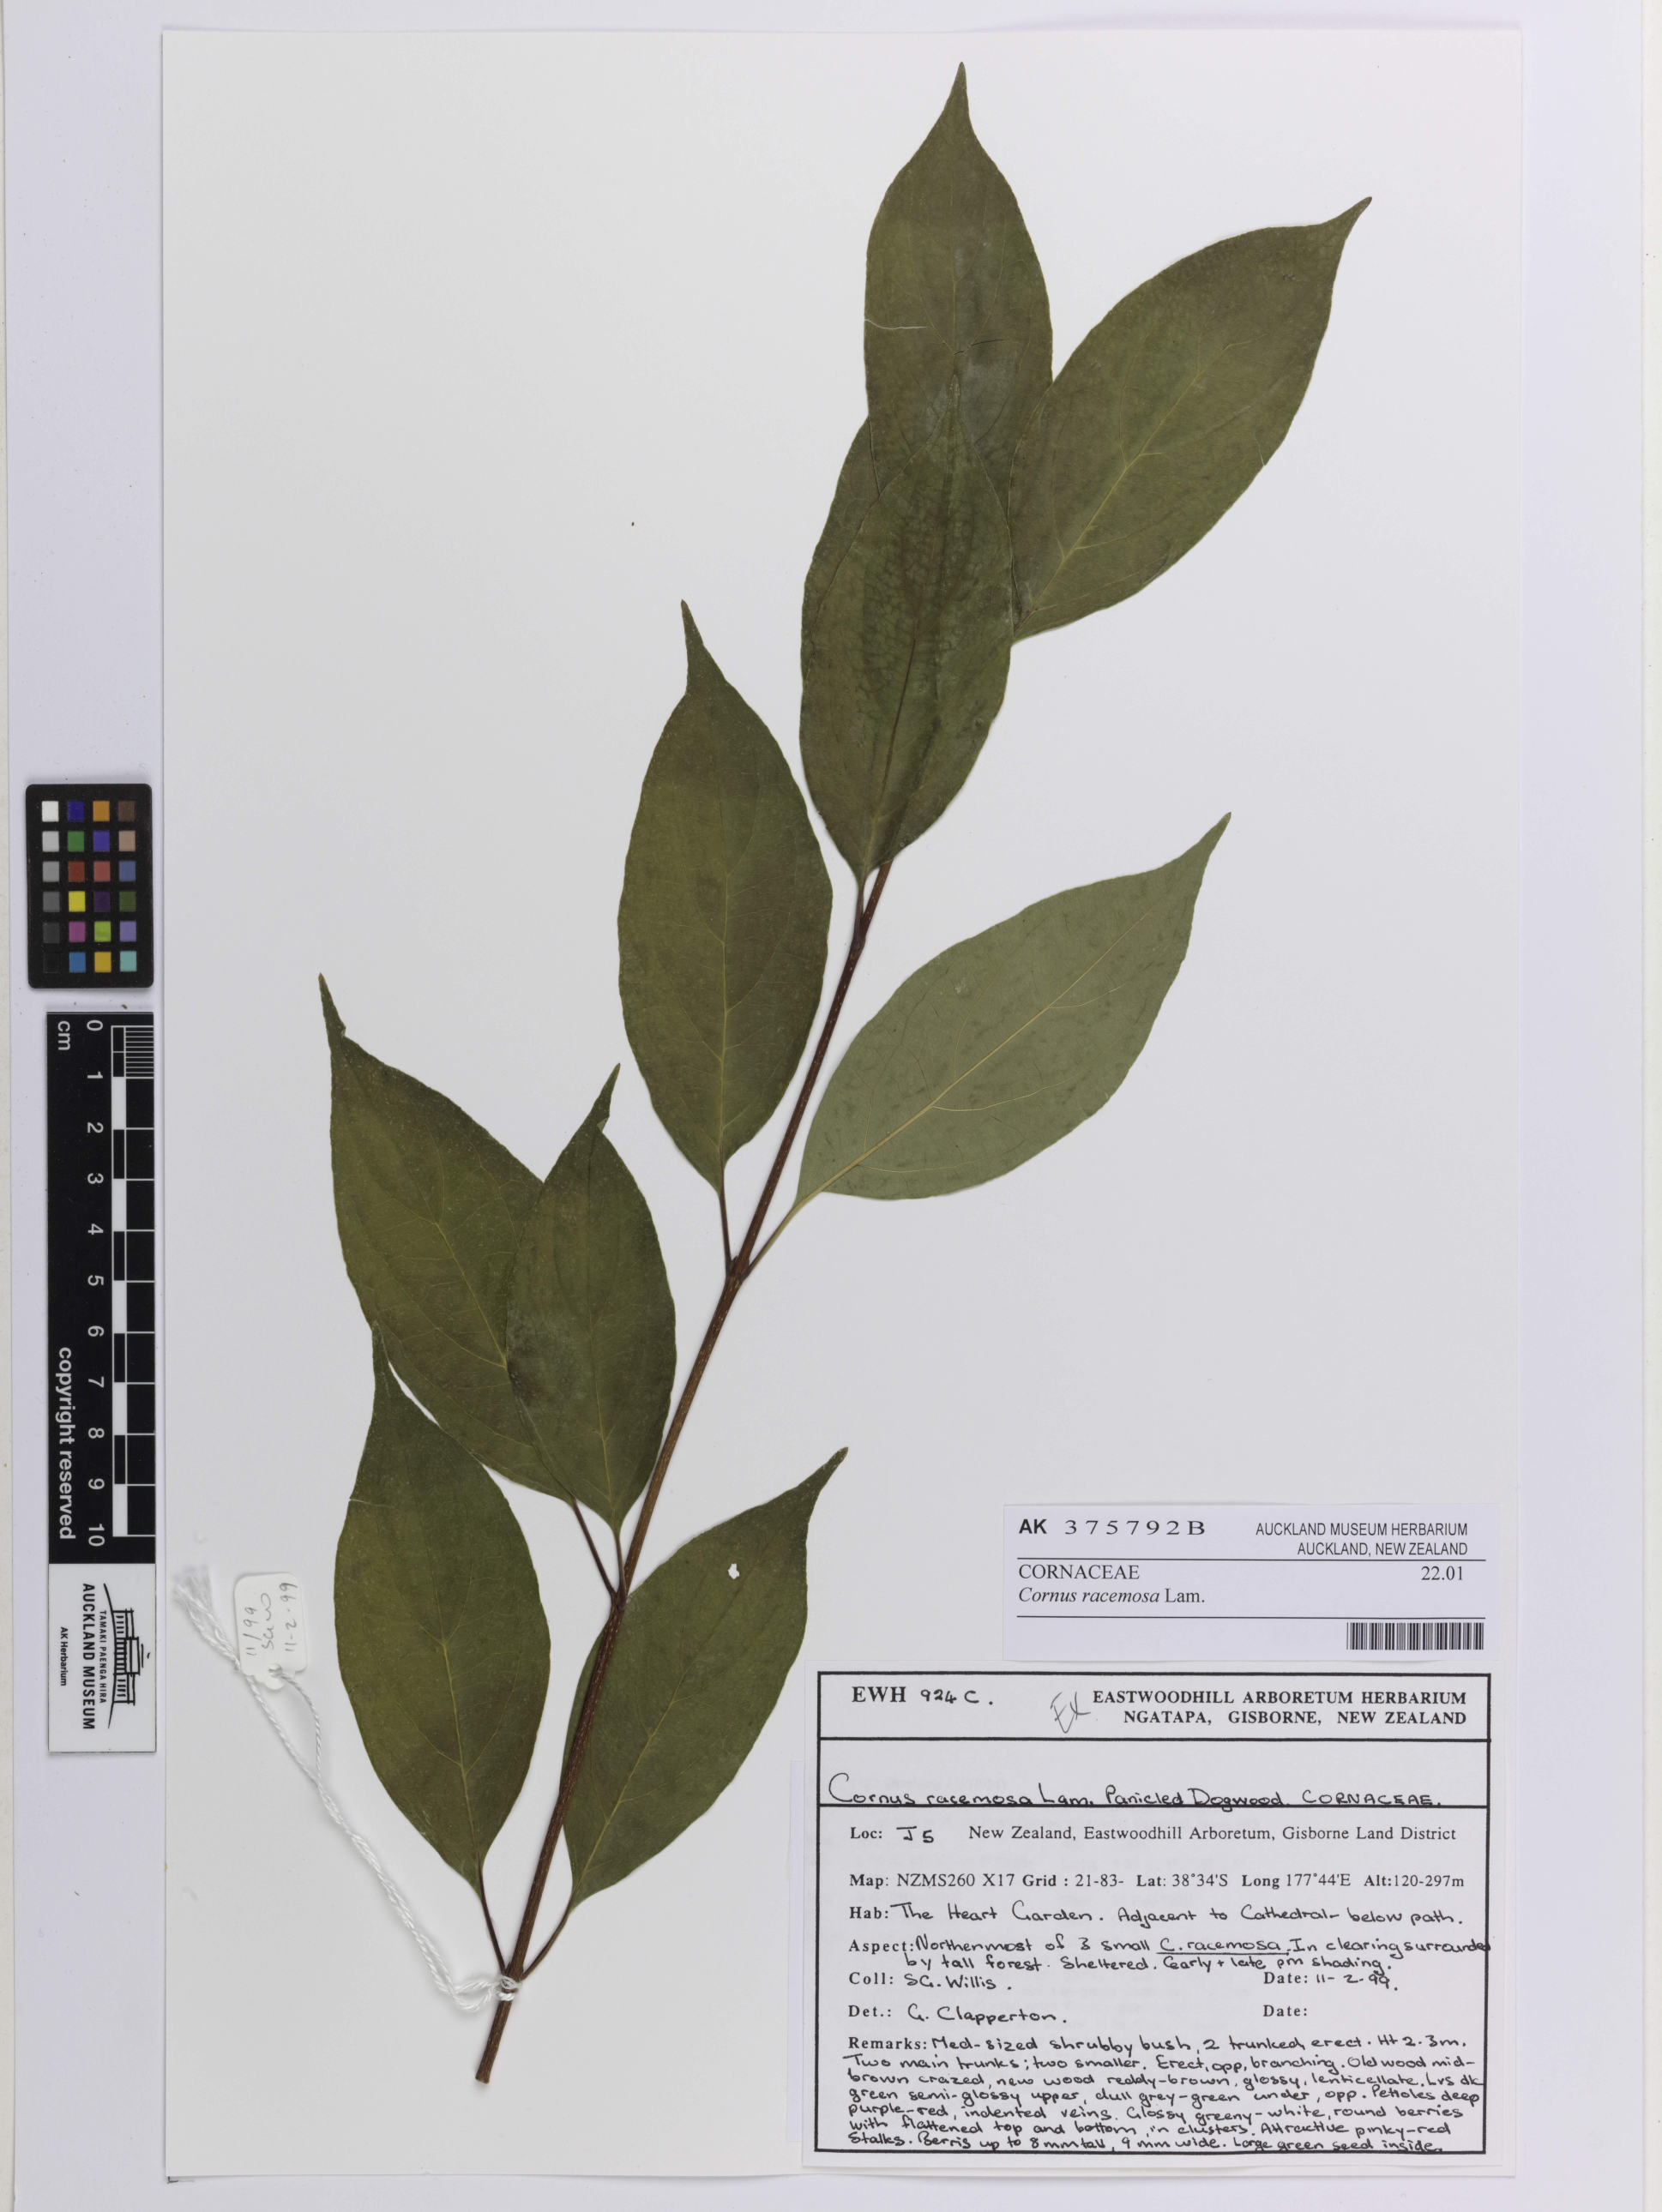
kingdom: Plantae
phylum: Tracheophyta
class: Magnoliopsida
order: Cornales
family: Cornaceae
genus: Cornus
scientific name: Cornus racemosa
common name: Panicled dogwood
